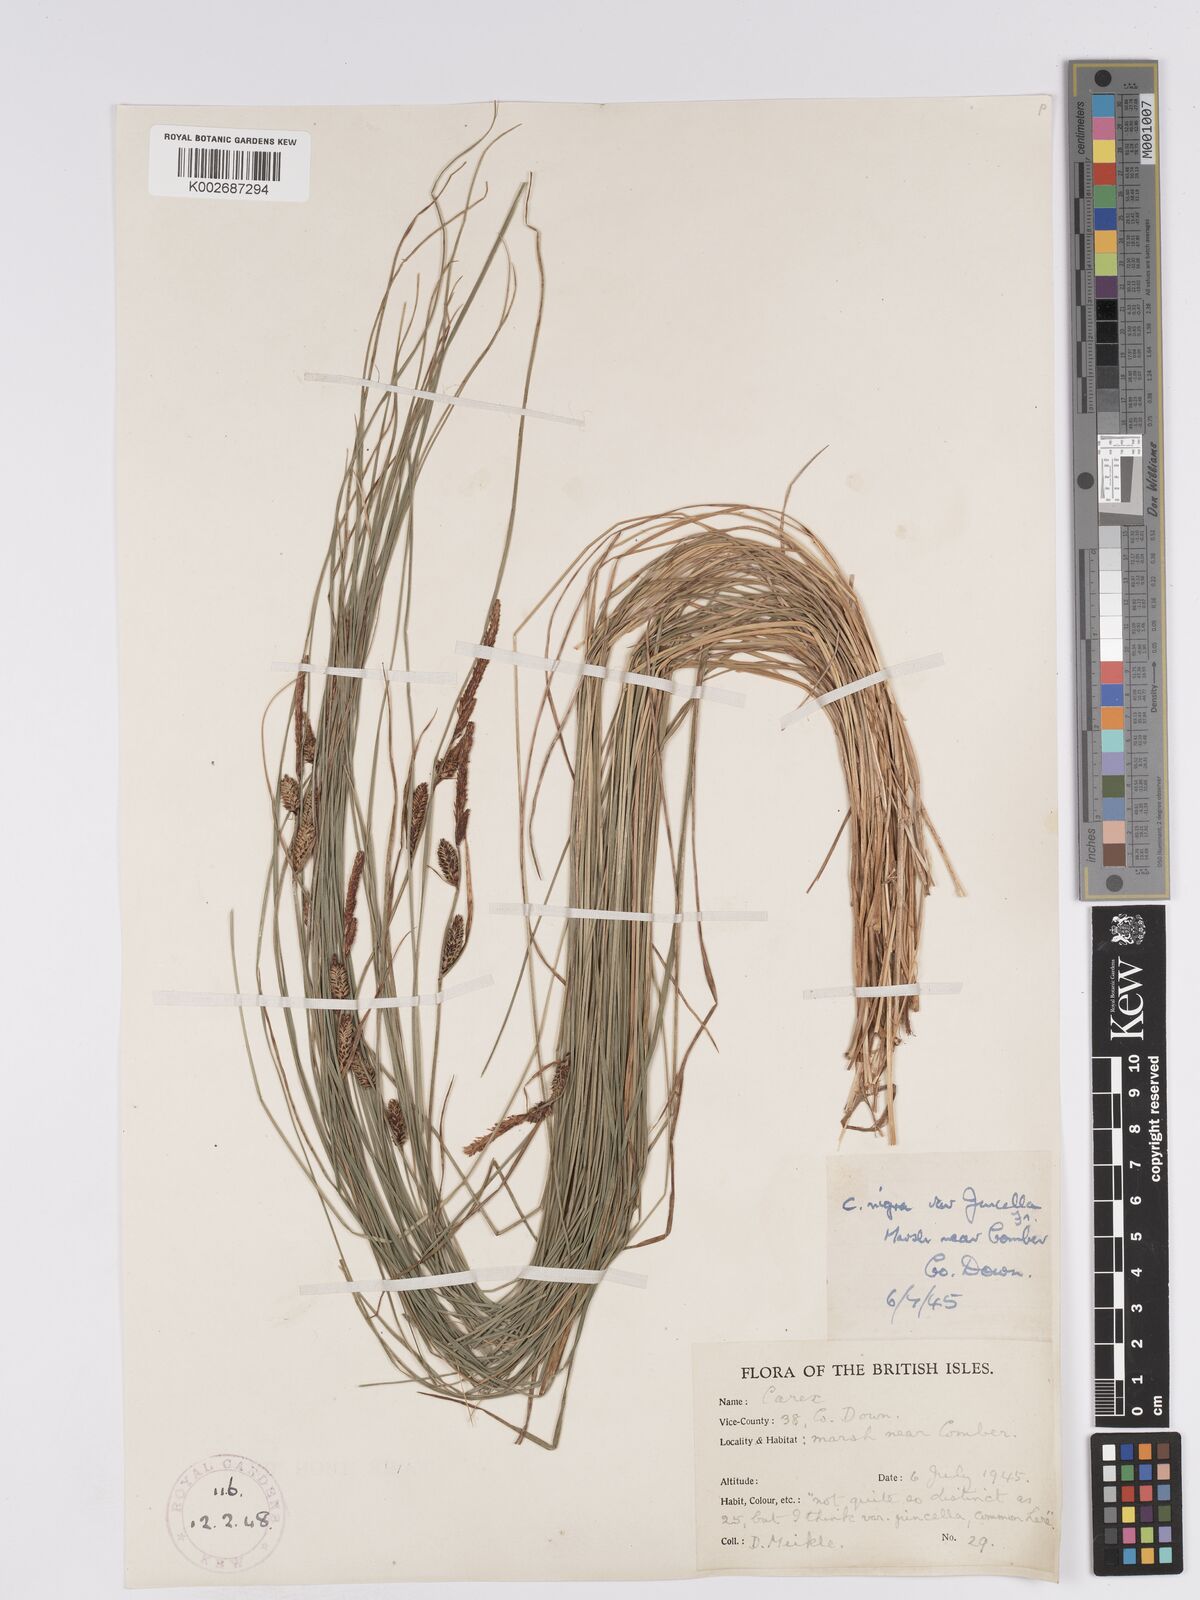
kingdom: Plantae
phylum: Tracheophyta
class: Liliopsida
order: Poales
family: Cyperaceae
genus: Carex
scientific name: Carex nigra
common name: Common sedge
